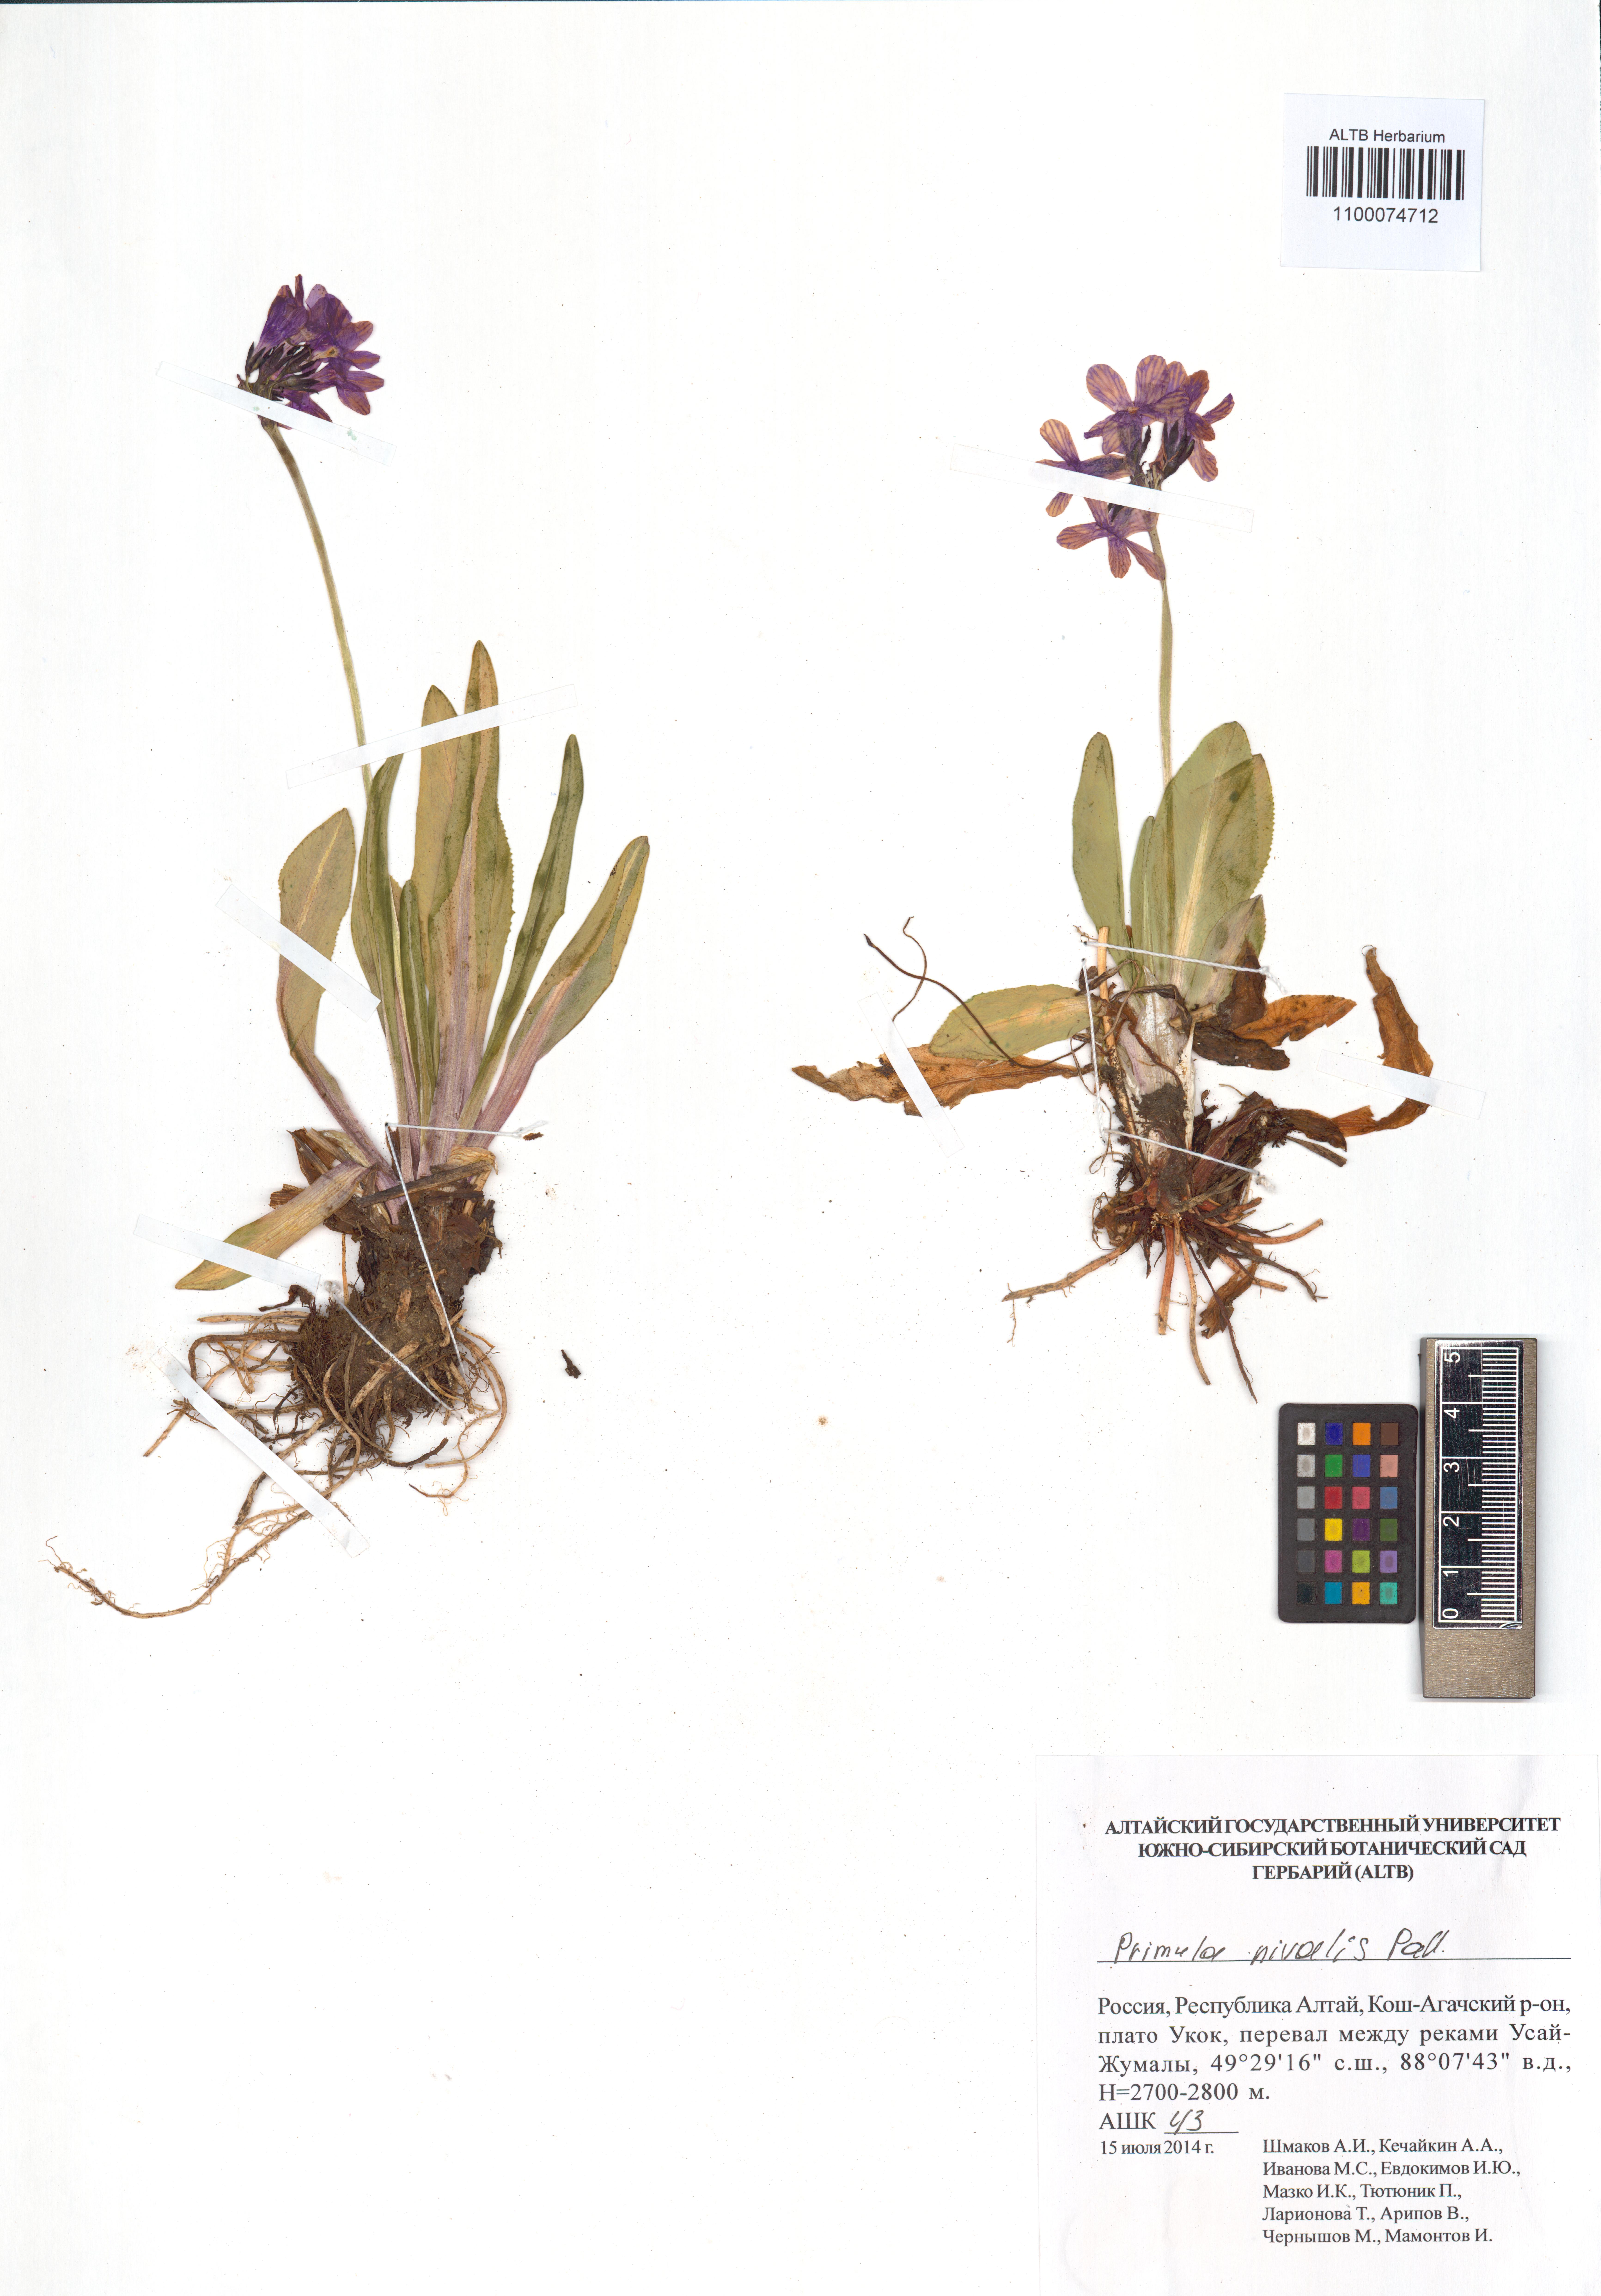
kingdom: Plantae
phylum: Tracheophyta
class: Magnoliopsida
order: Ericales
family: Primulaceae
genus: Primula
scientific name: Primula nivalis
